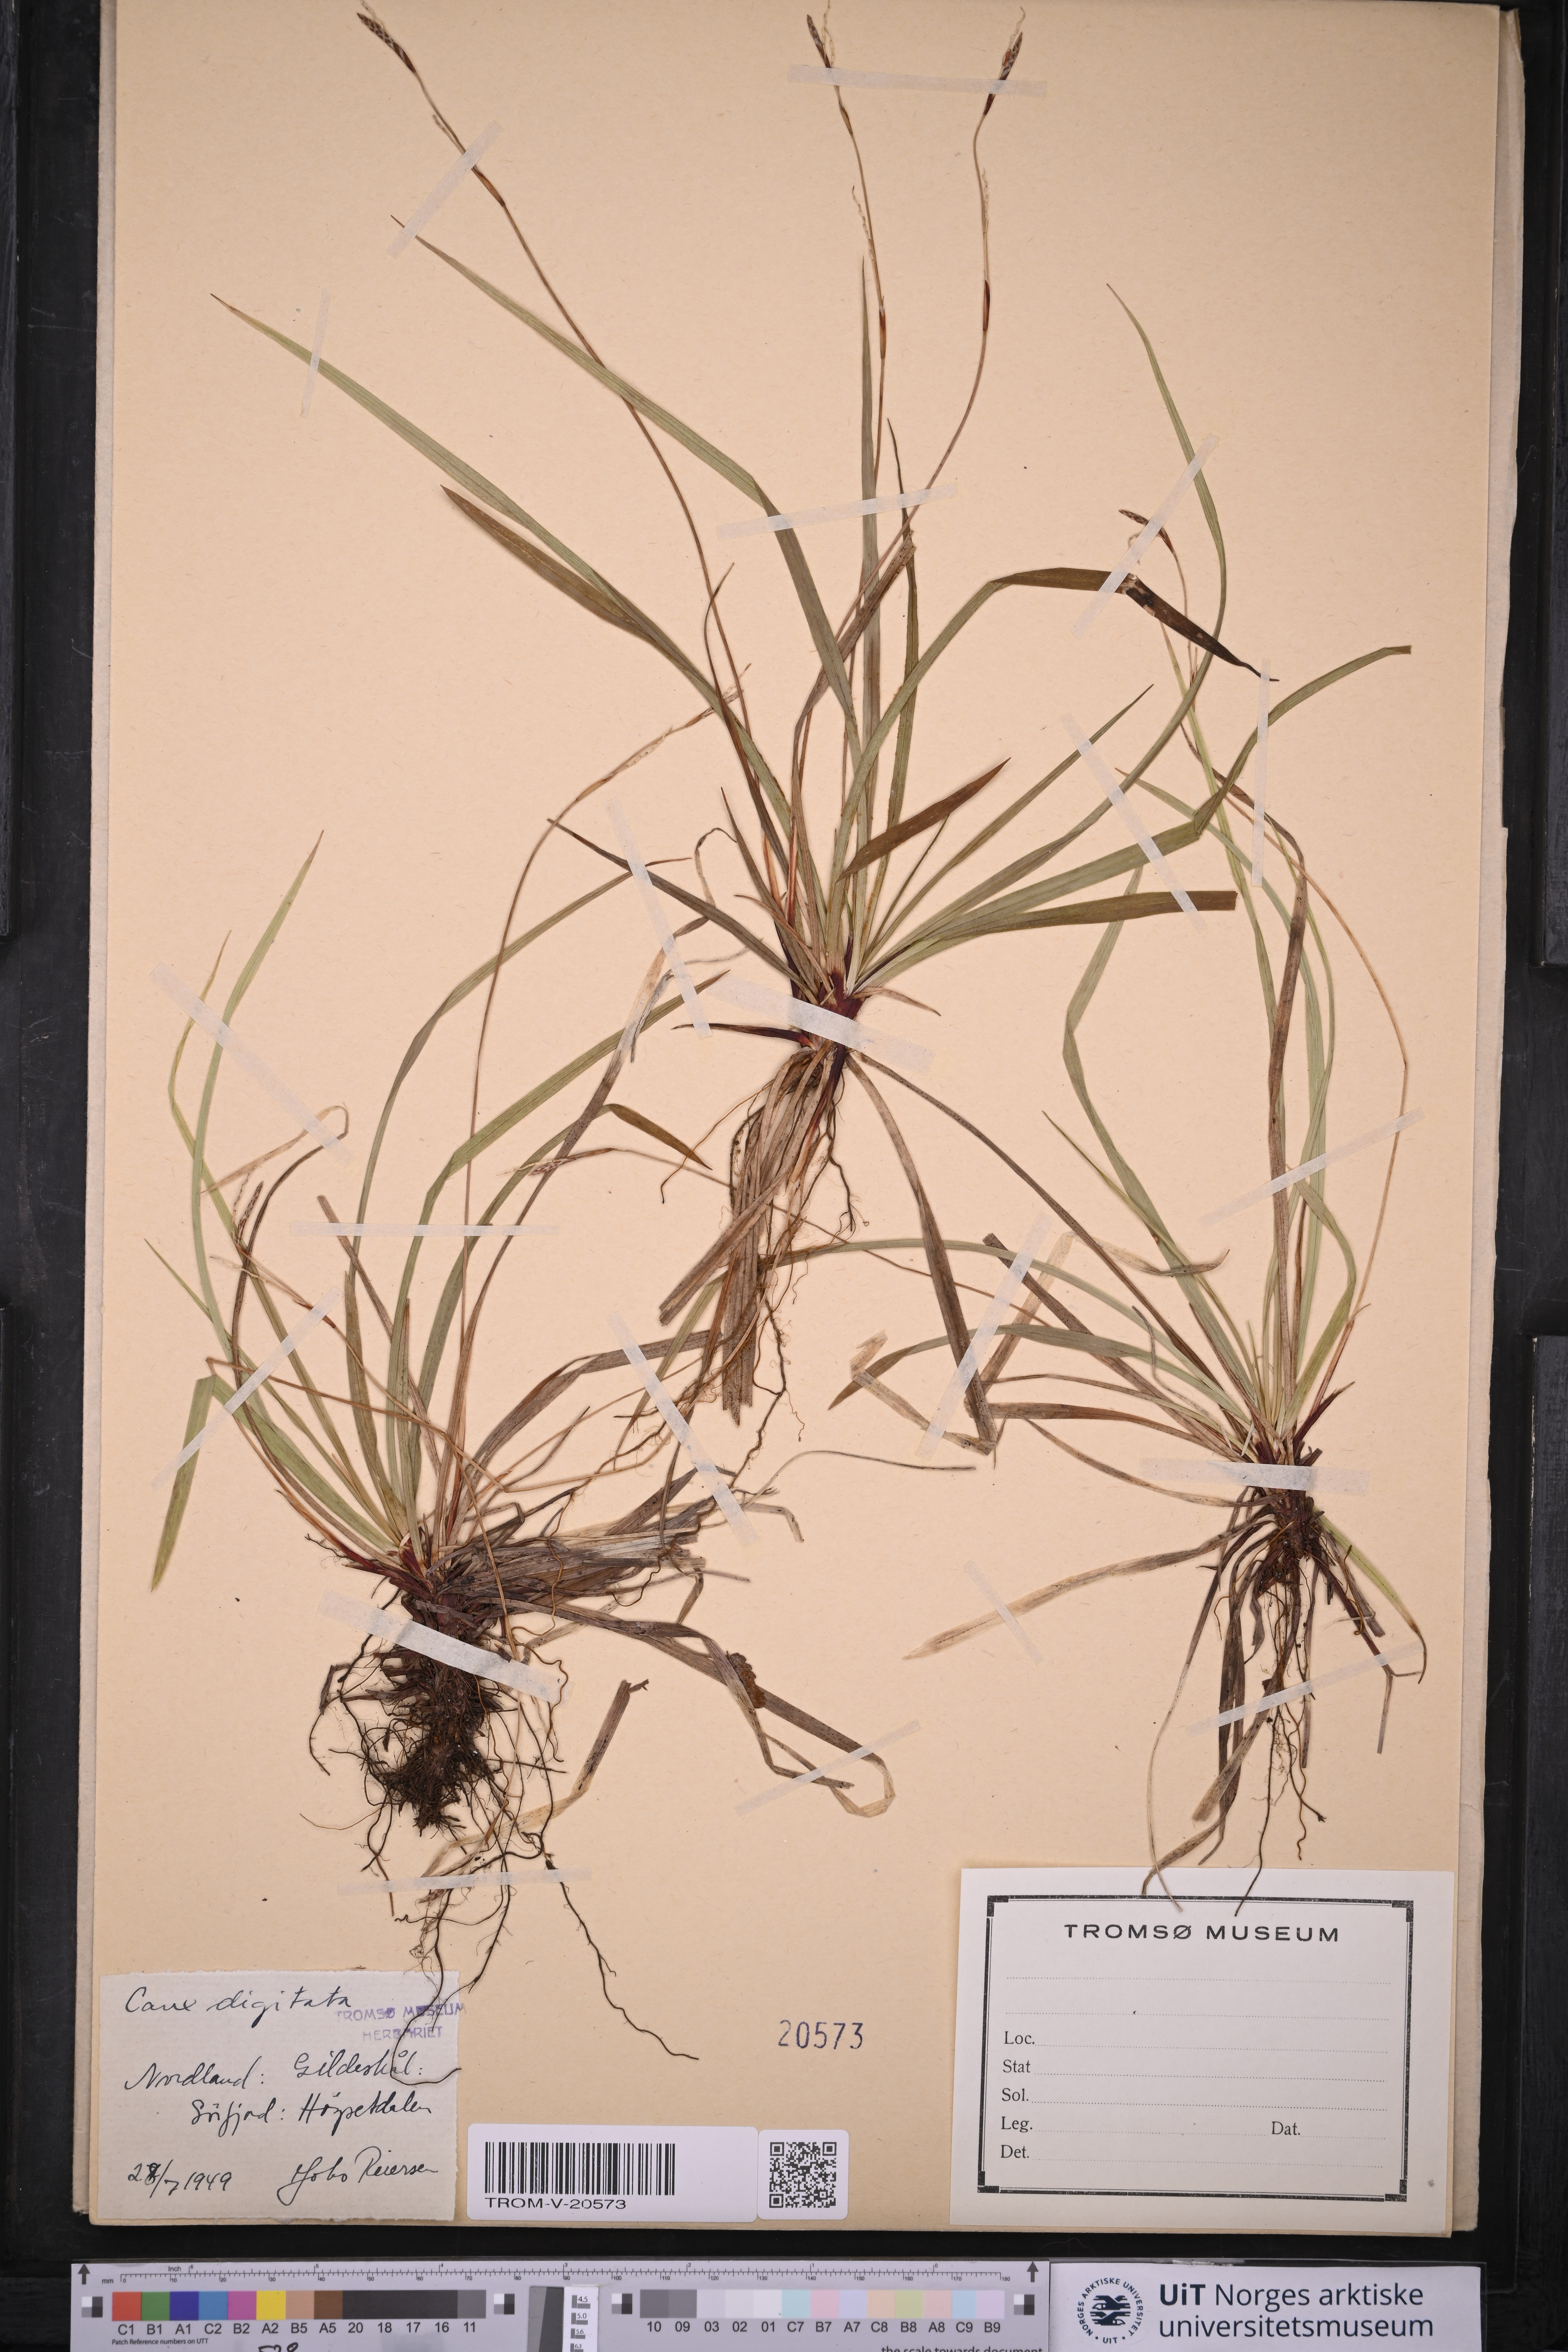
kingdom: Plantae
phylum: Tracheophyta
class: Liliopsida
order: Poales
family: Cyperaceae
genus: Carex
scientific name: Carex digitata
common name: Fingered sedge
